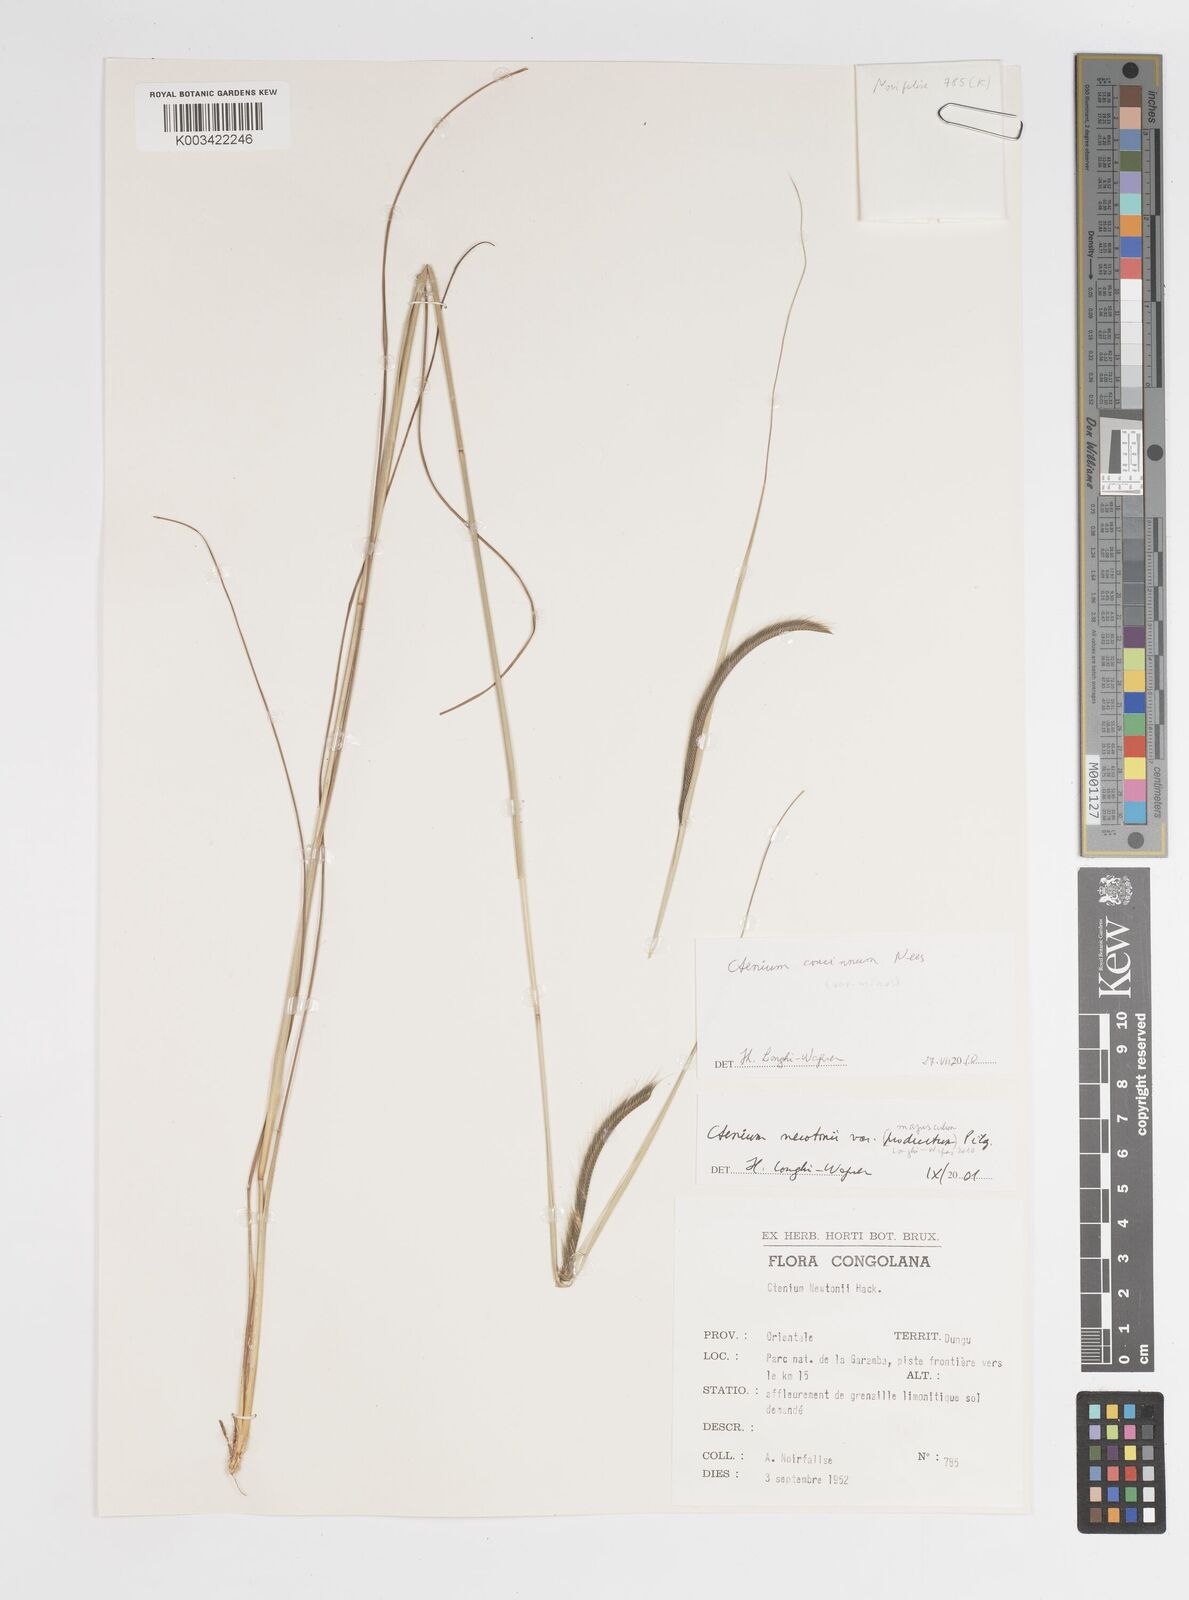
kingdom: Plantae
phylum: Tracheophyta
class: Liliopsida
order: Poales
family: Poaceae
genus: Ctenium
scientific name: Ctenium concinnum
